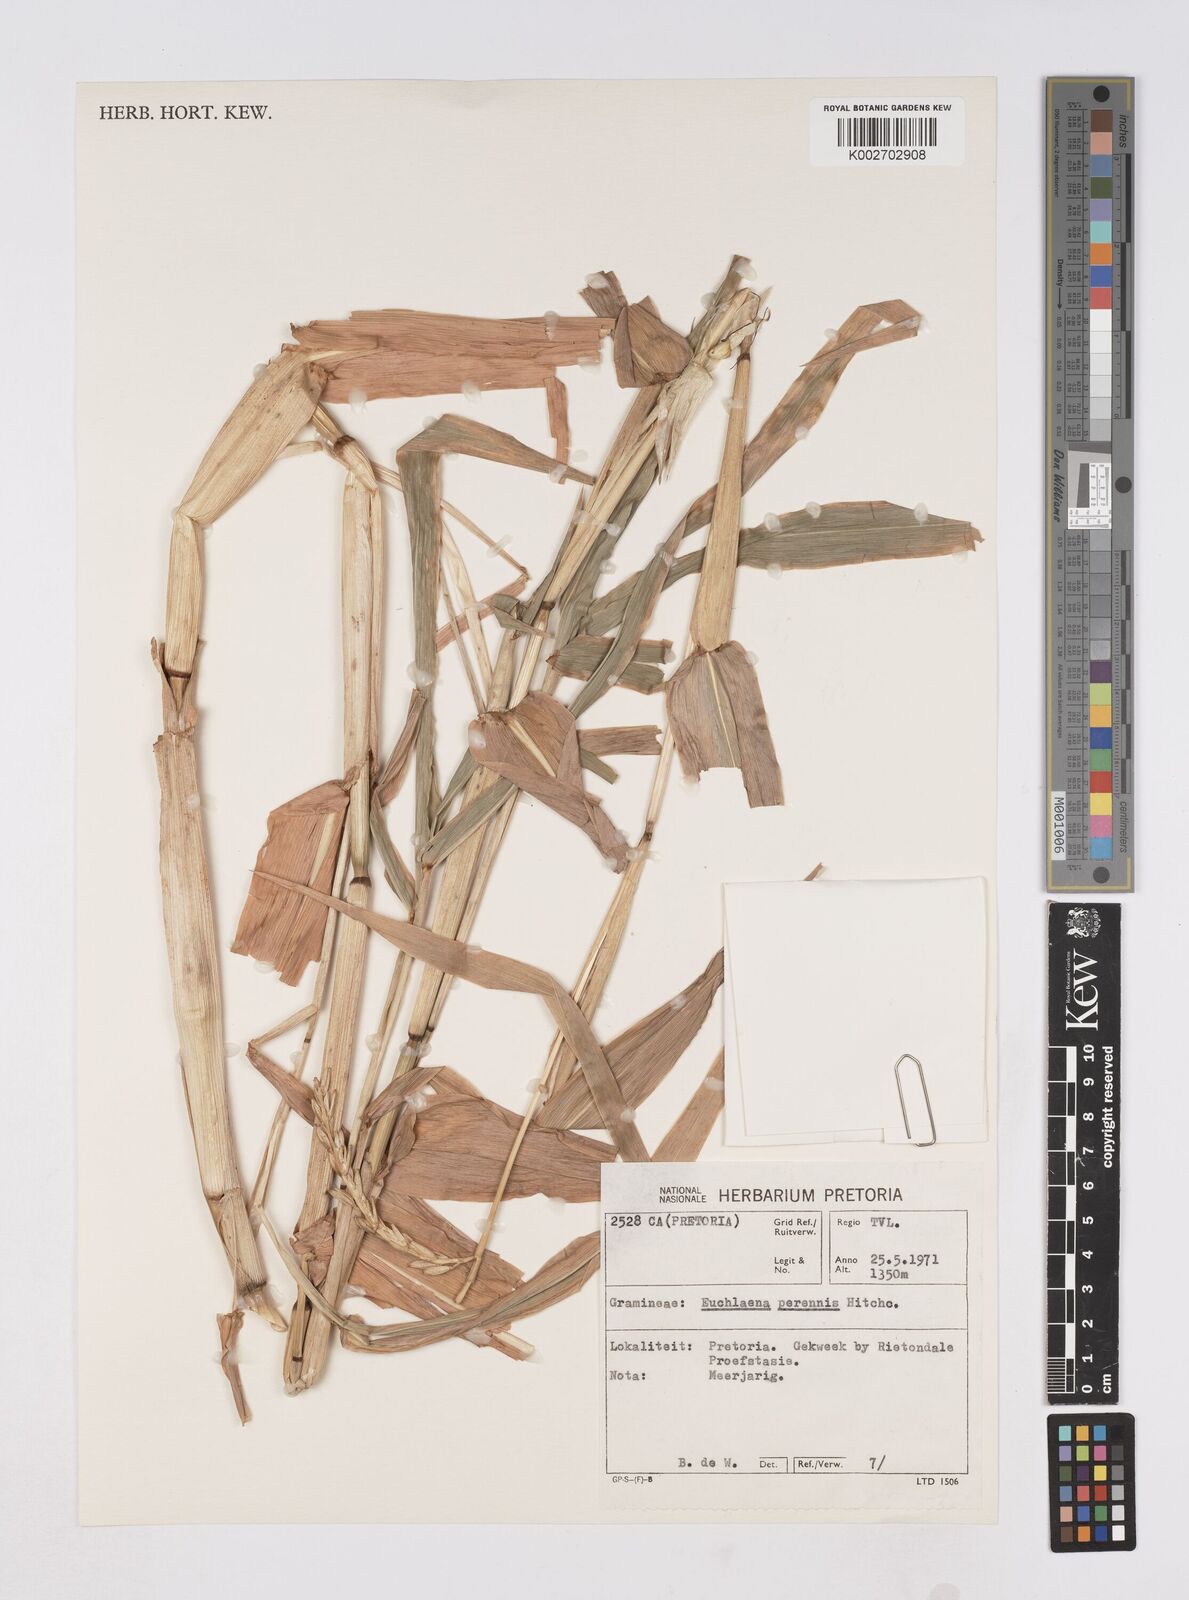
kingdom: Plantae
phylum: Tracheophyta
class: Liliopsida
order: Poales
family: Poaceae
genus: Zea
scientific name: Zea perennis
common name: Perennial teosinte
